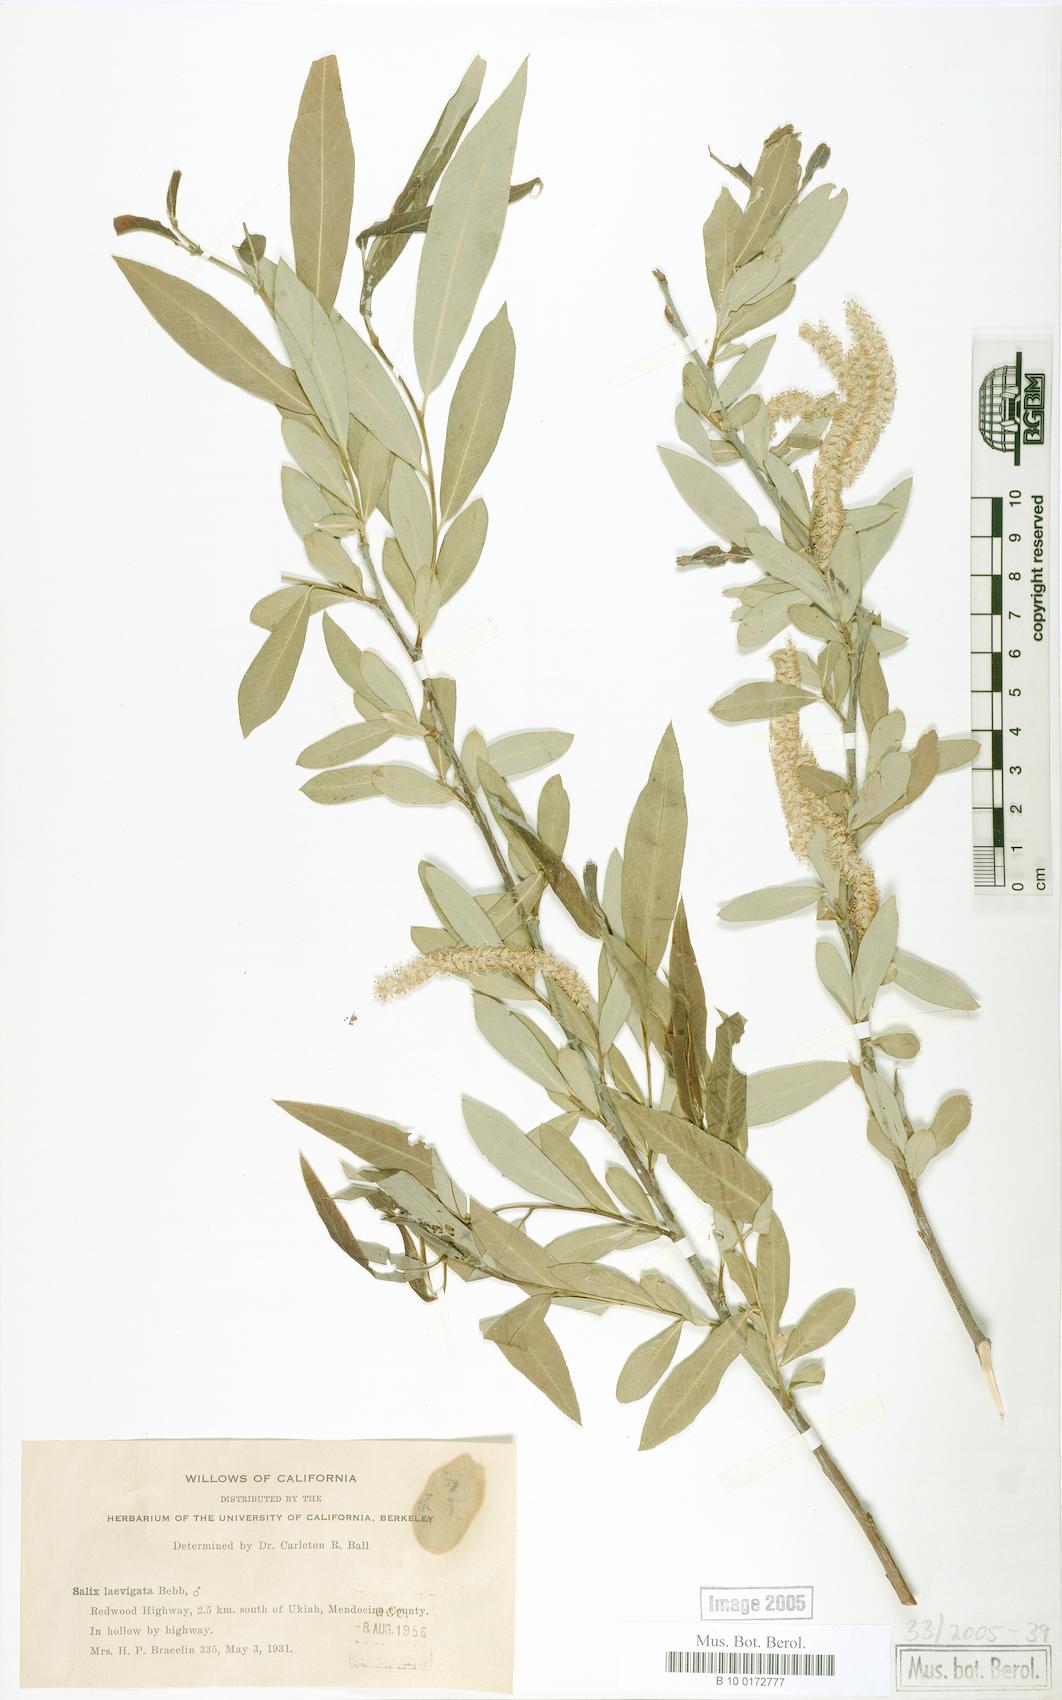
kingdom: Plantae
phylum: Tracheophyta
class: Magnoliopsida
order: Malpighiales
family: Salicaceae
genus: Salix
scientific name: Salix laevigata
